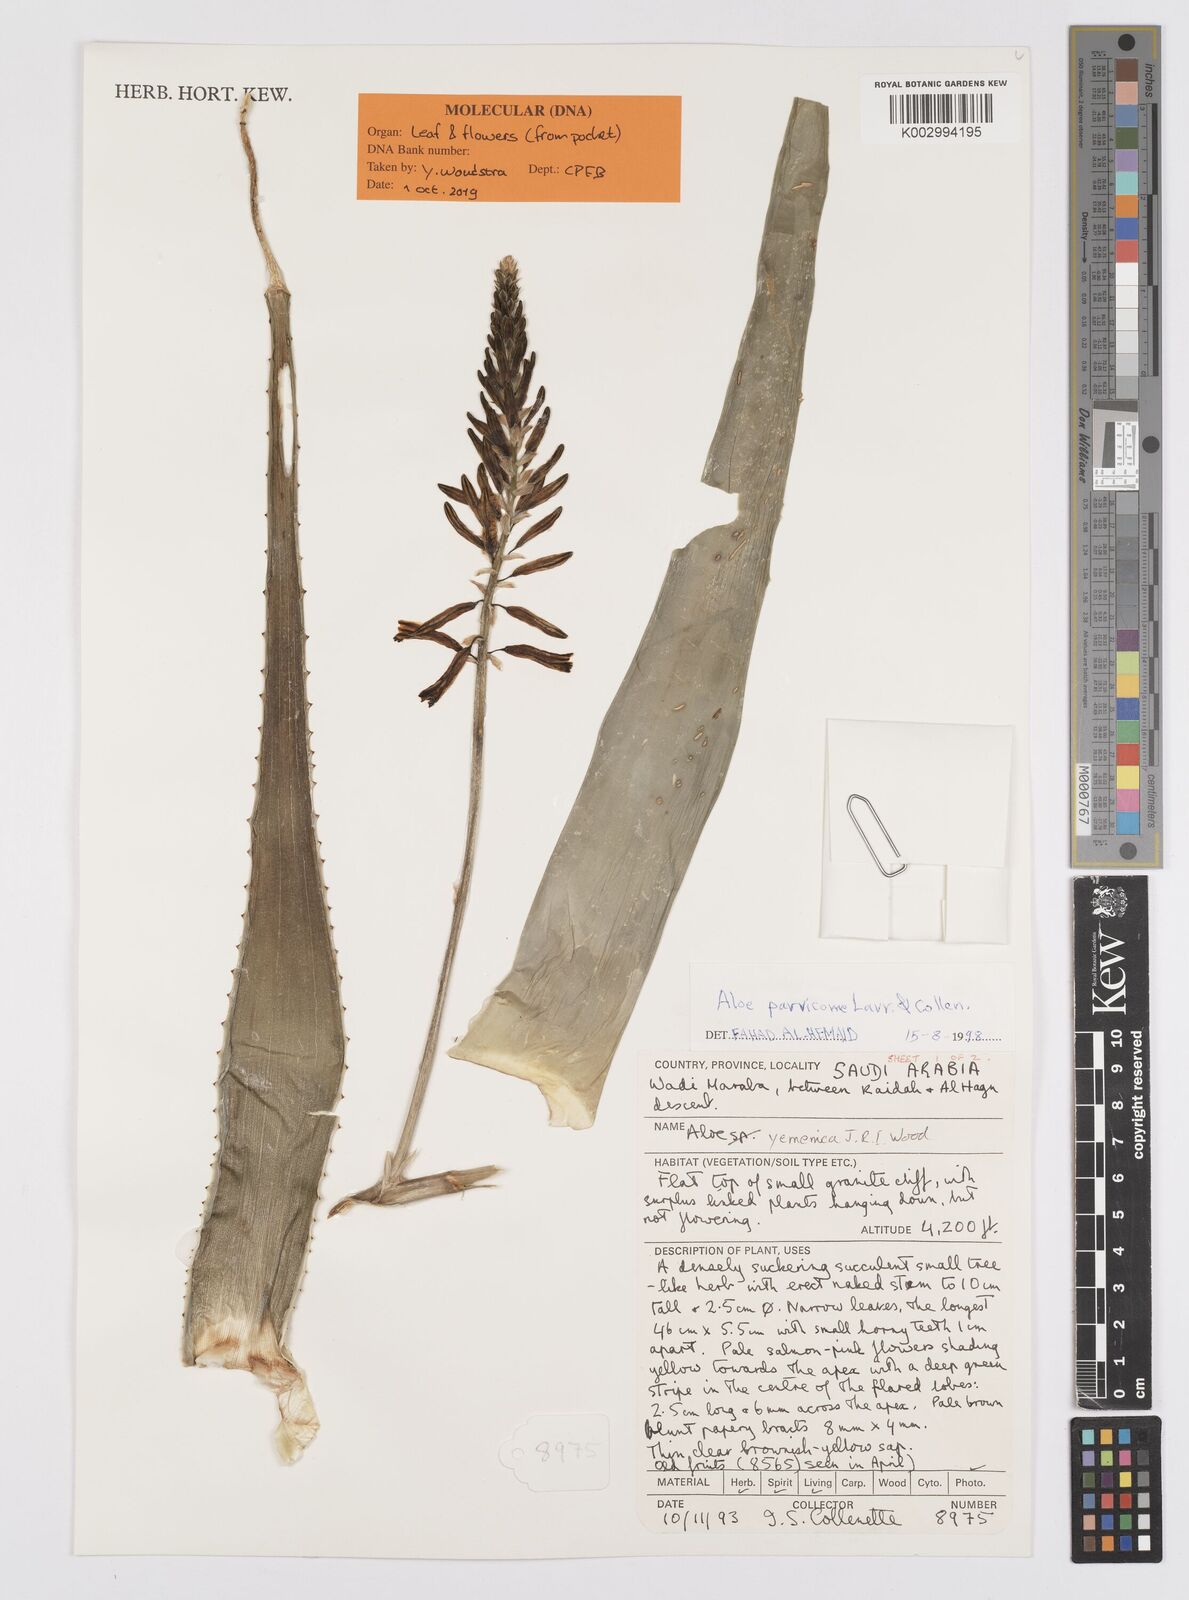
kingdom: Plantae
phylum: Tracheophyta
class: Liliopsida
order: Asparagales
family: Asphodelaceae
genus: Aloe
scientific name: Aloe rivierei
